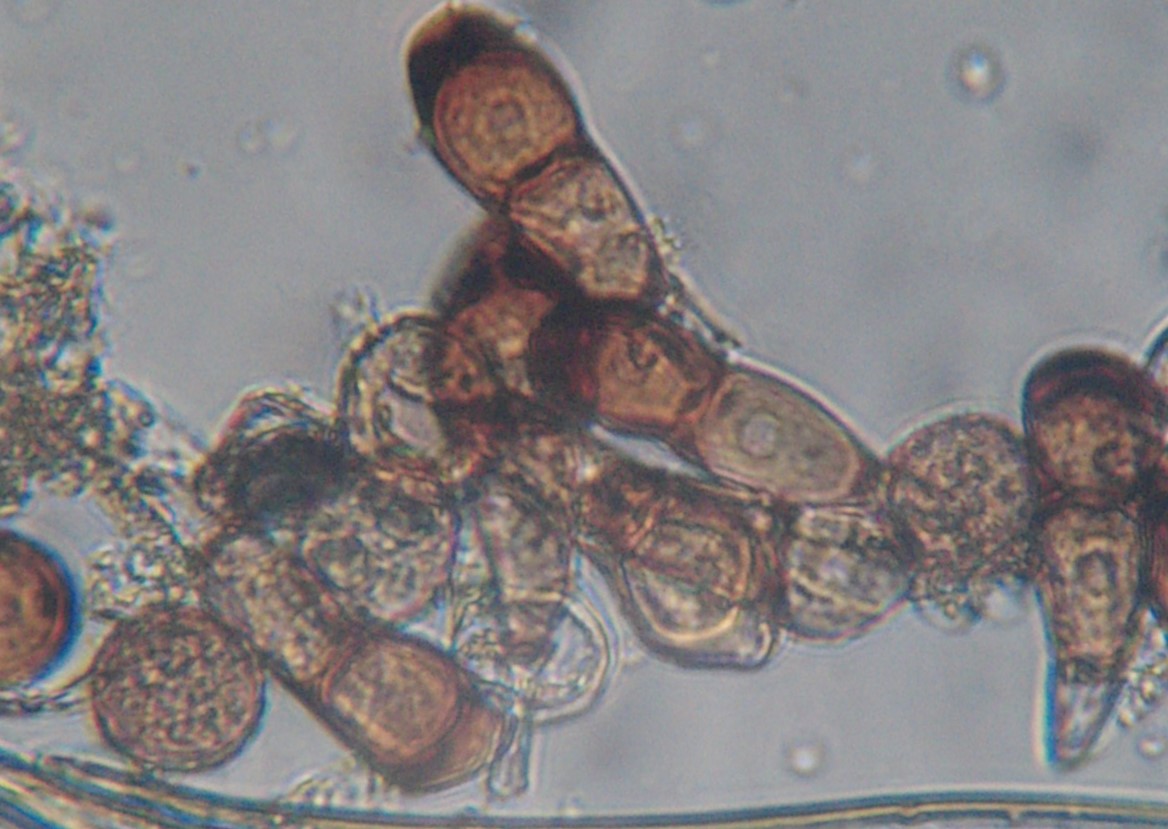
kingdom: Fungi
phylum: Basidiomycota
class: Pucciniomycetes
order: Pucciniales
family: Pucciniaceae
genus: Puccinia
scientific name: Puccinia polygoni-amphibii
